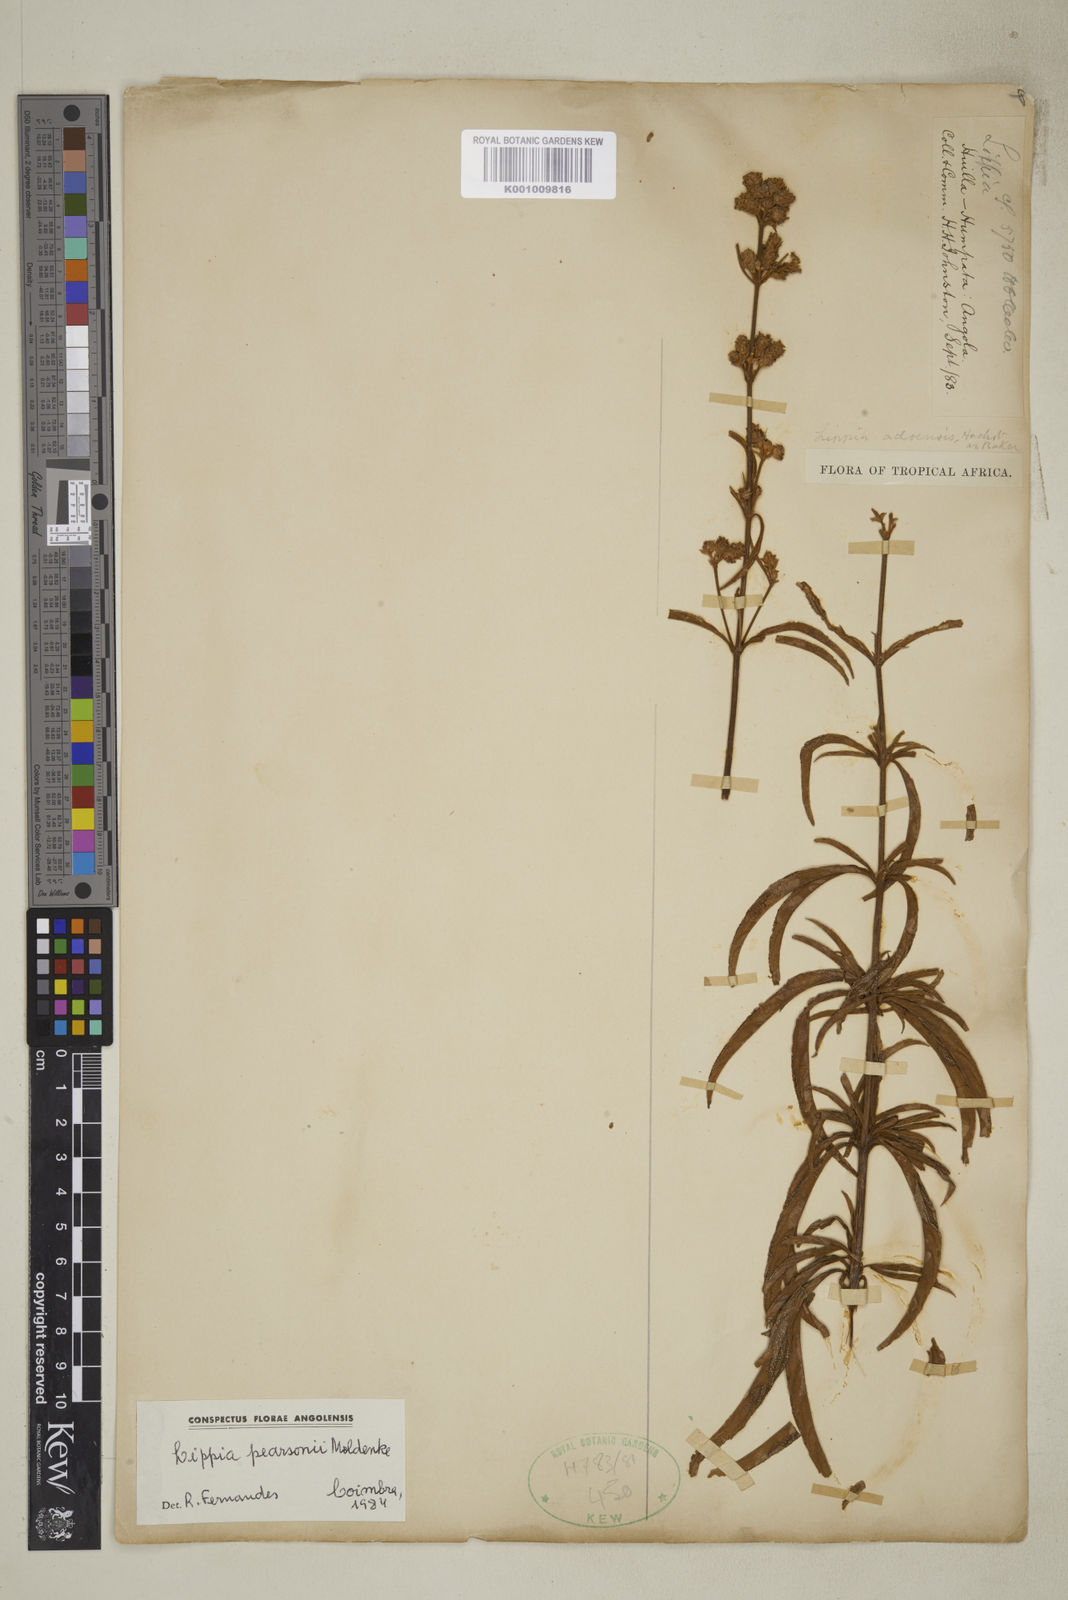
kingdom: Plantae
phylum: Tracheophyta
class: Magnoliopsida
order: Lamiales
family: Verbenaceae
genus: Lippia
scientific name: Lippia pearsonii
